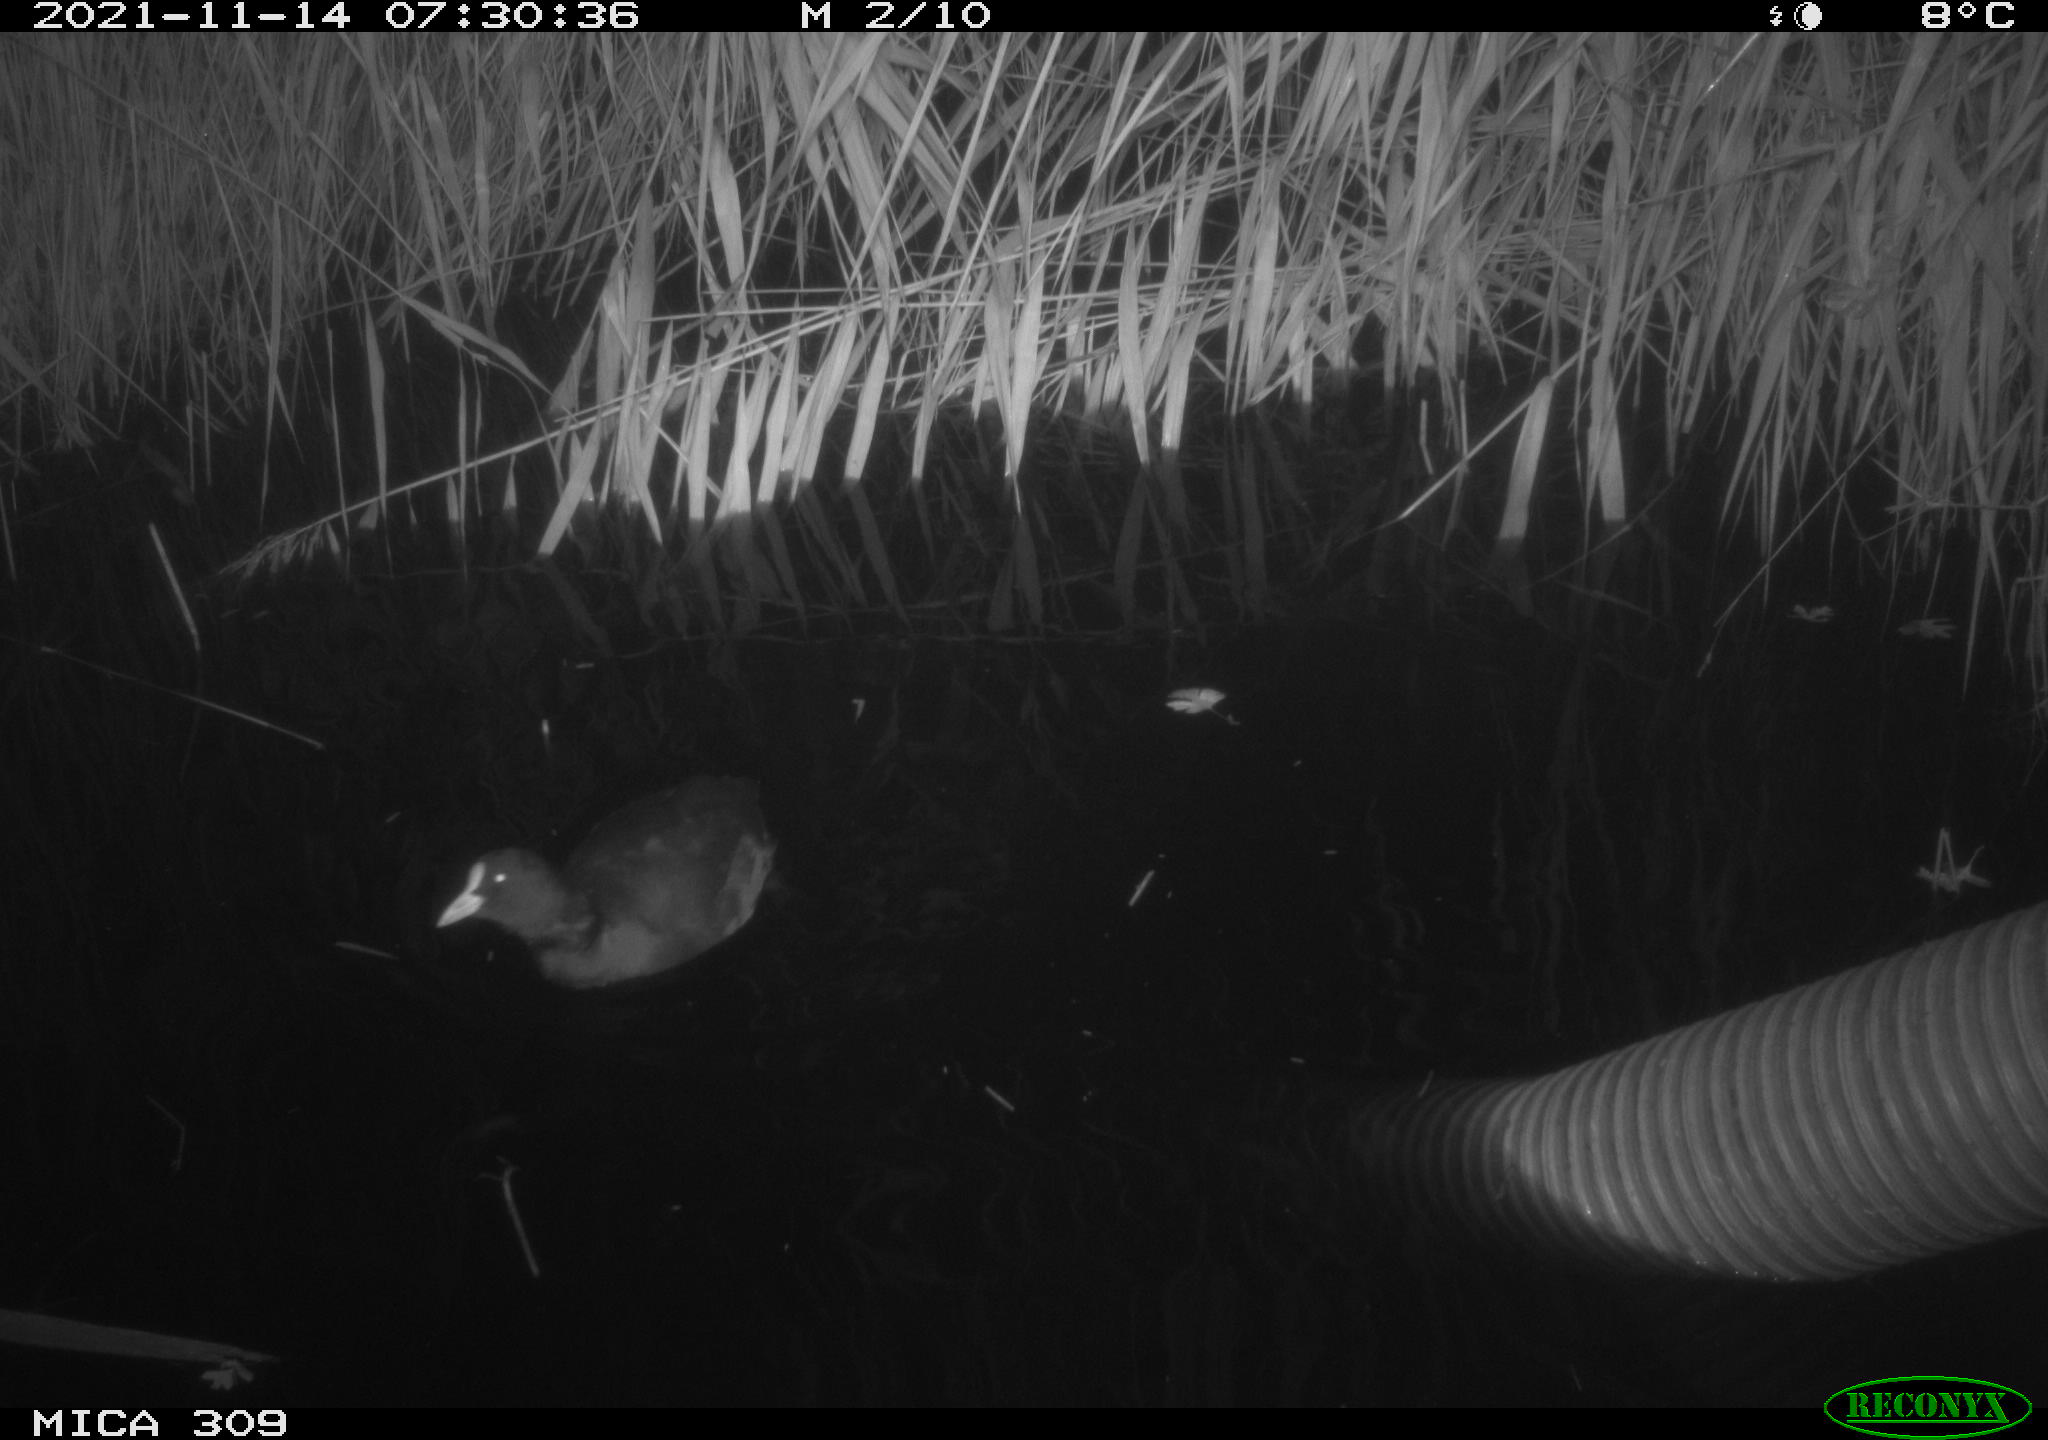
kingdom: Animalia
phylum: Chordata
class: Aves
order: Gruiformes
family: Rallidae
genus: Fulica
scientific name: Fulica atra
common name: Eurasian coot
